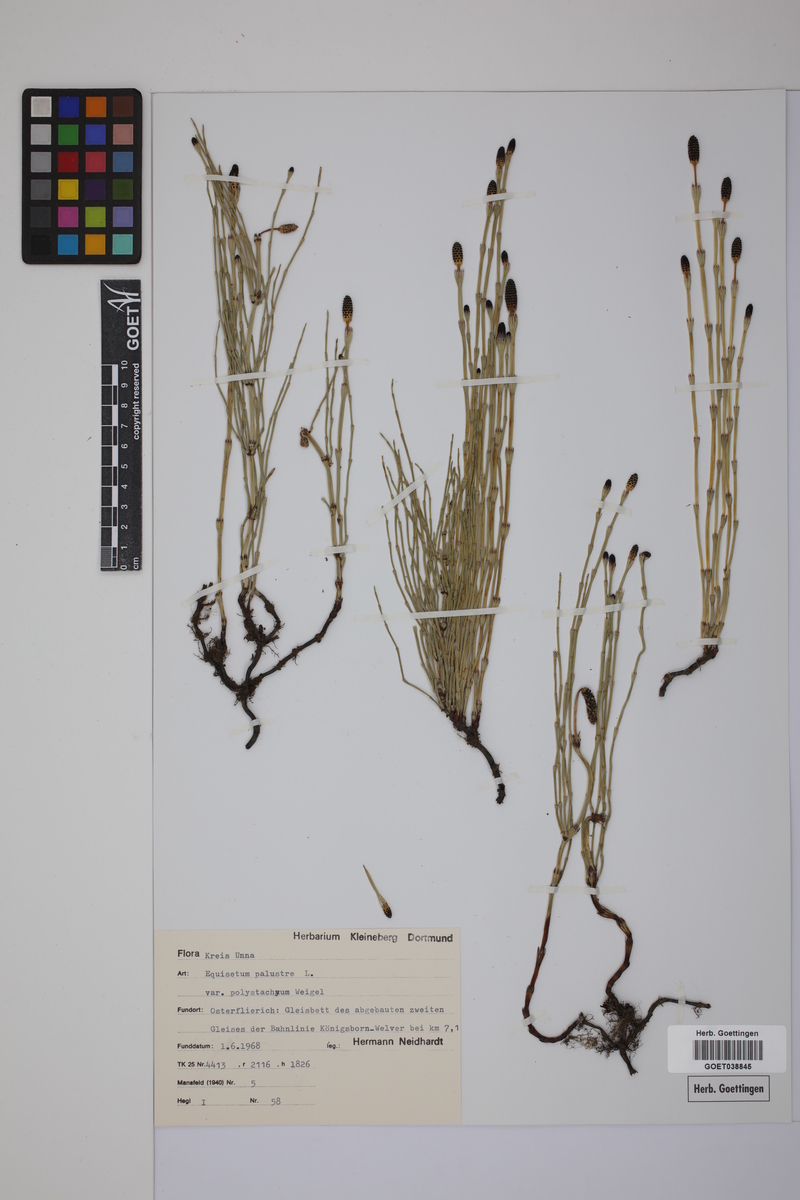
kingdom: Plantae
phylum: Tracheophyta
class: Polypodiopsida
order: Equisetales
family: Equisetaceae
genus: Equisetum
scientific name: Equisetum palustre
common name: Marsh horsetail
